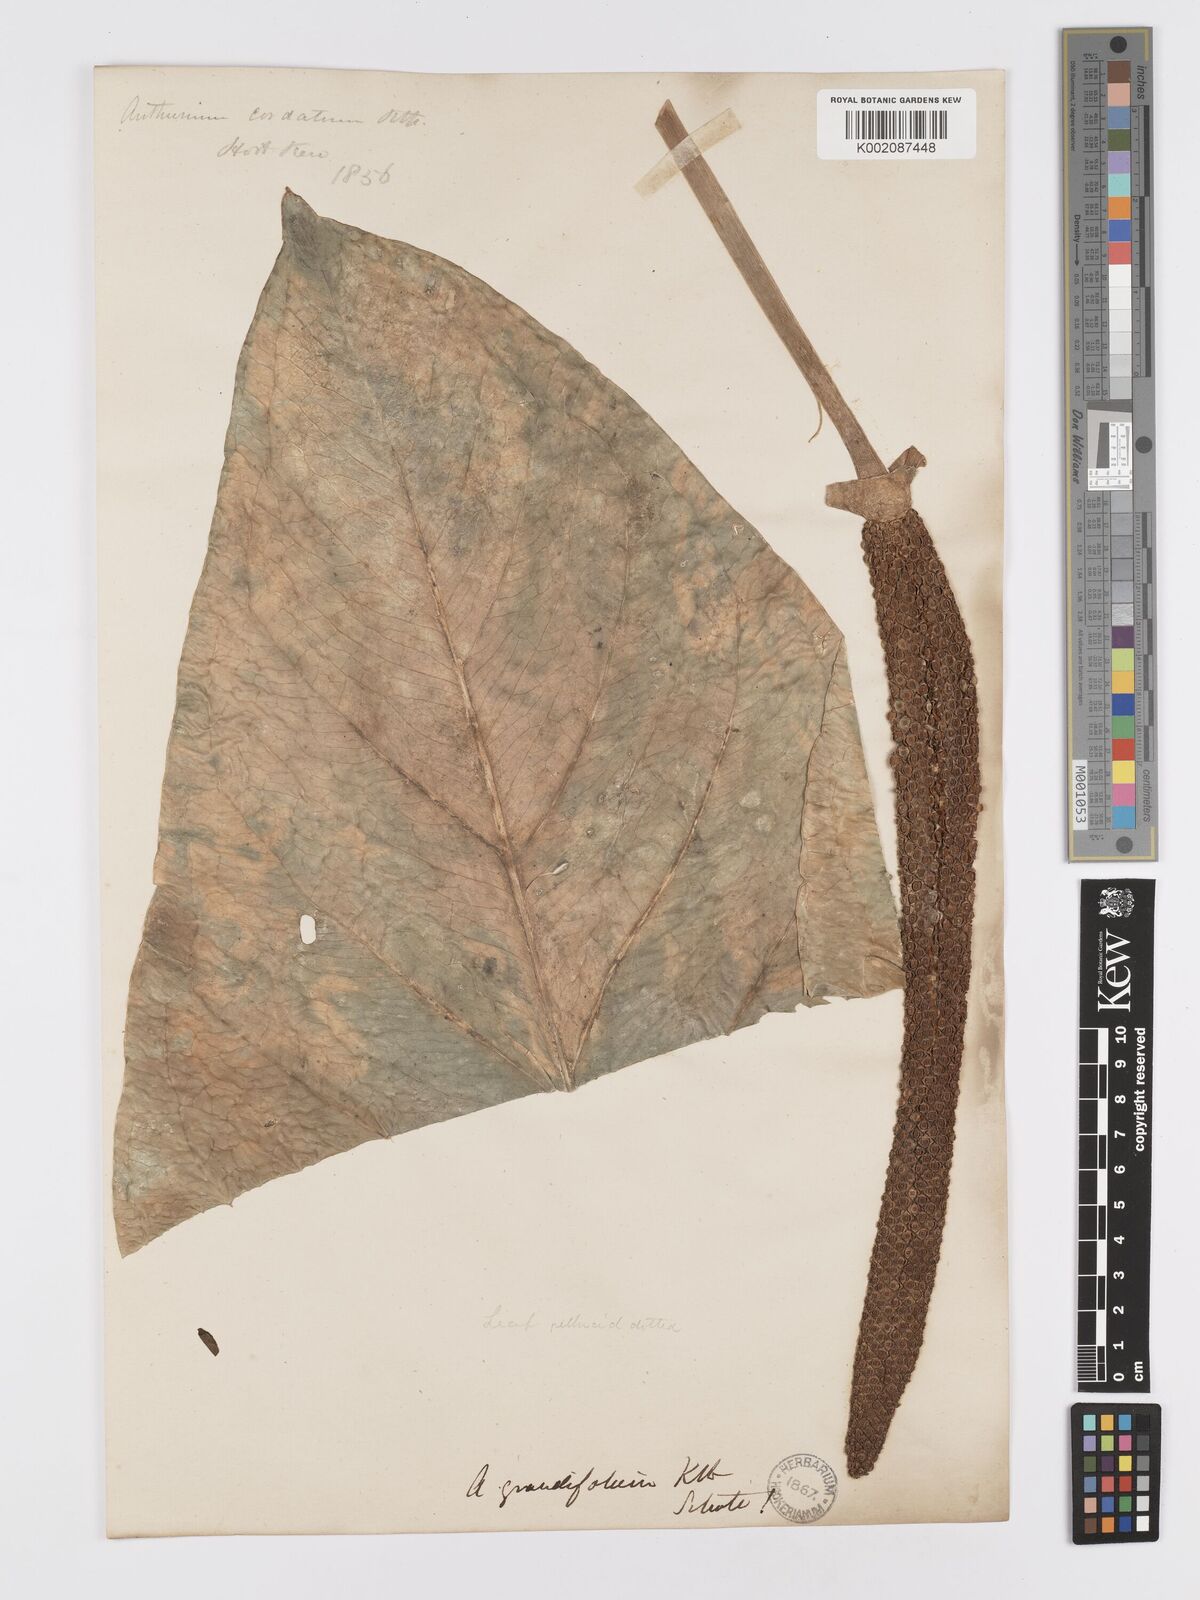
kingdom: Plantae
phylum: Tracheophyta
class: Liliopsida
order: Alismatales
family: Araceae
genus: Anthurium
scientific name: Anthurium
